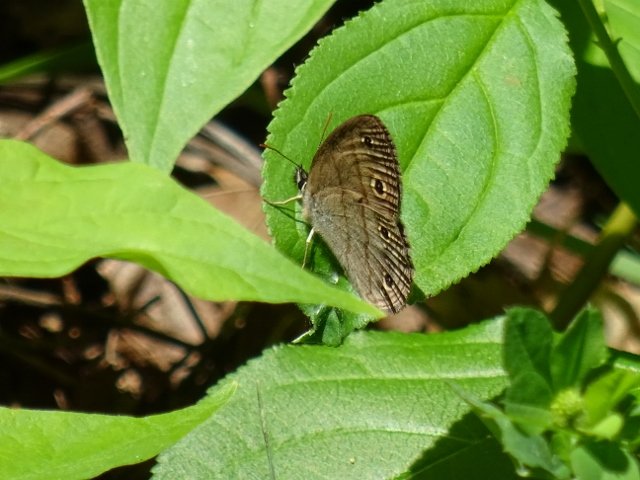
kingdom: Animalia
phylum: Arthropoda
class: Insecta
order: Lepidoptera
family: Nymphalidae
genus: Euptychia
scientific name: Euptychia cymela
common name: Little Wood Satyr
